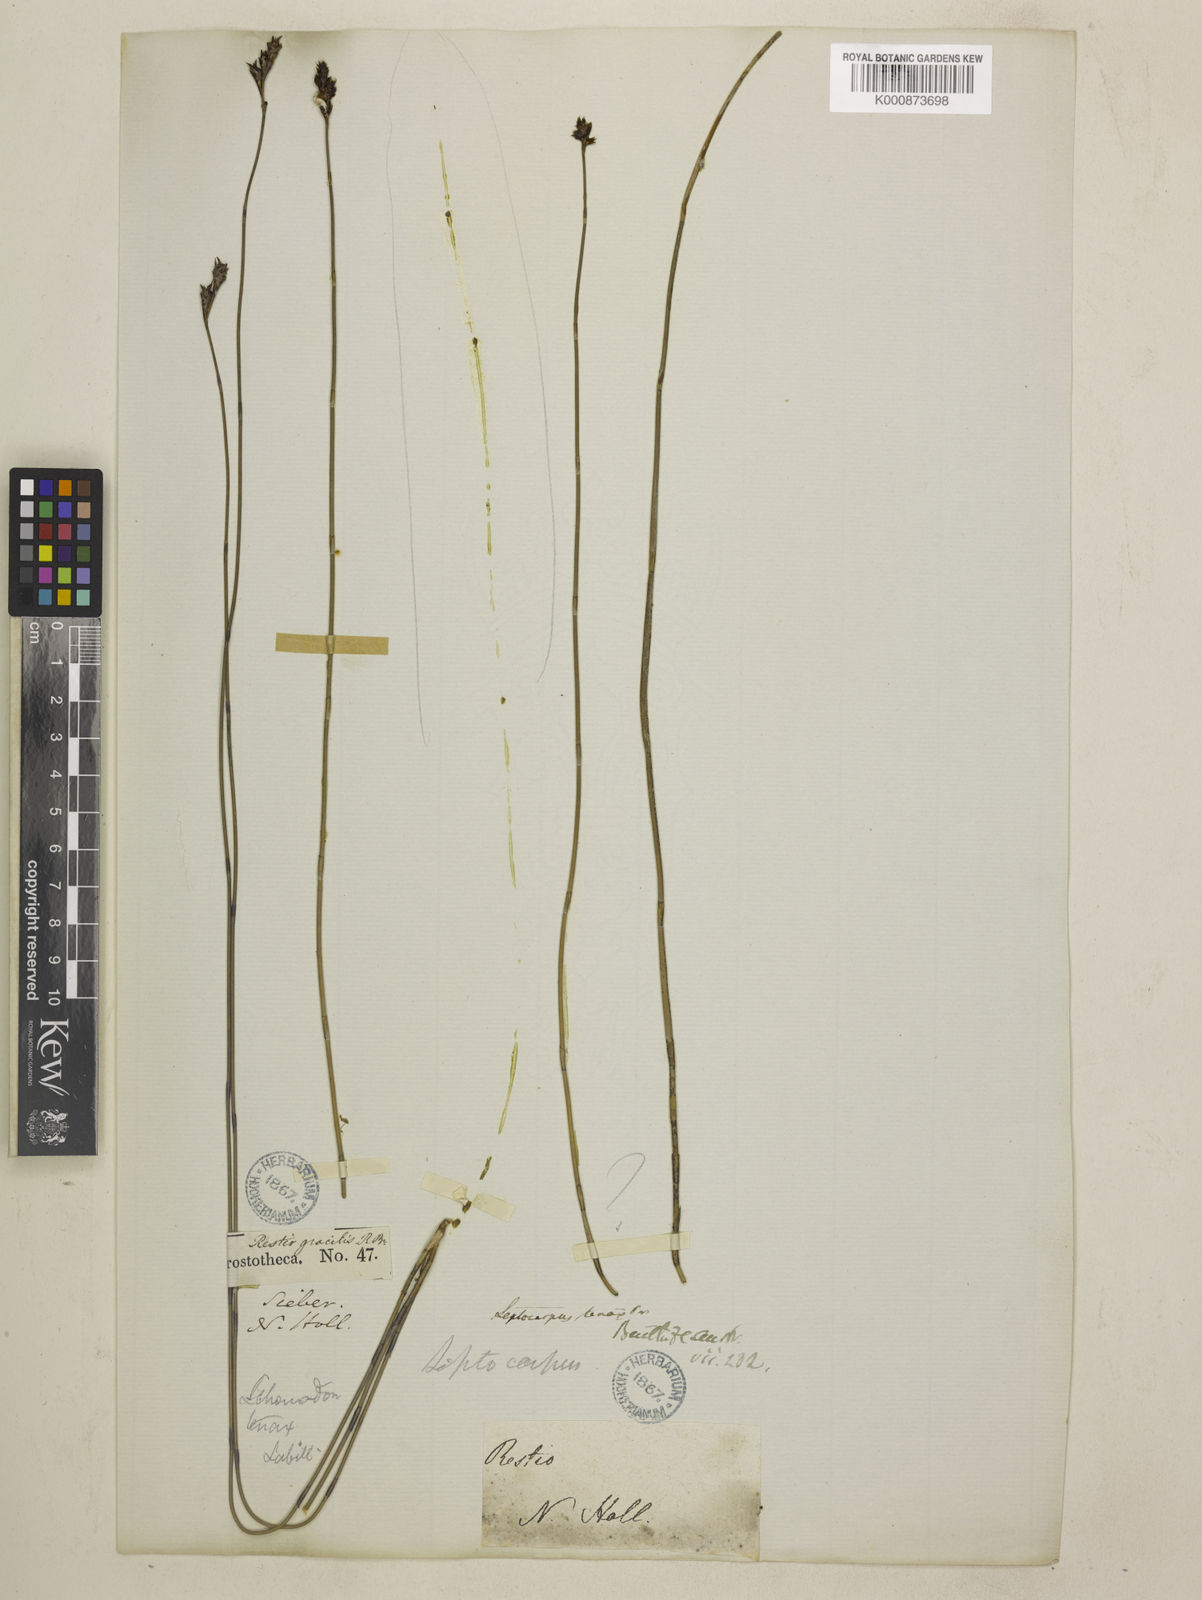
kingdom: Plantae
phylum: Tracheophyta
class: Liliopsida
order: Poales
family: Restionaceae
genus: Leptocarpus
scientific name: Leptocarpus tenax
